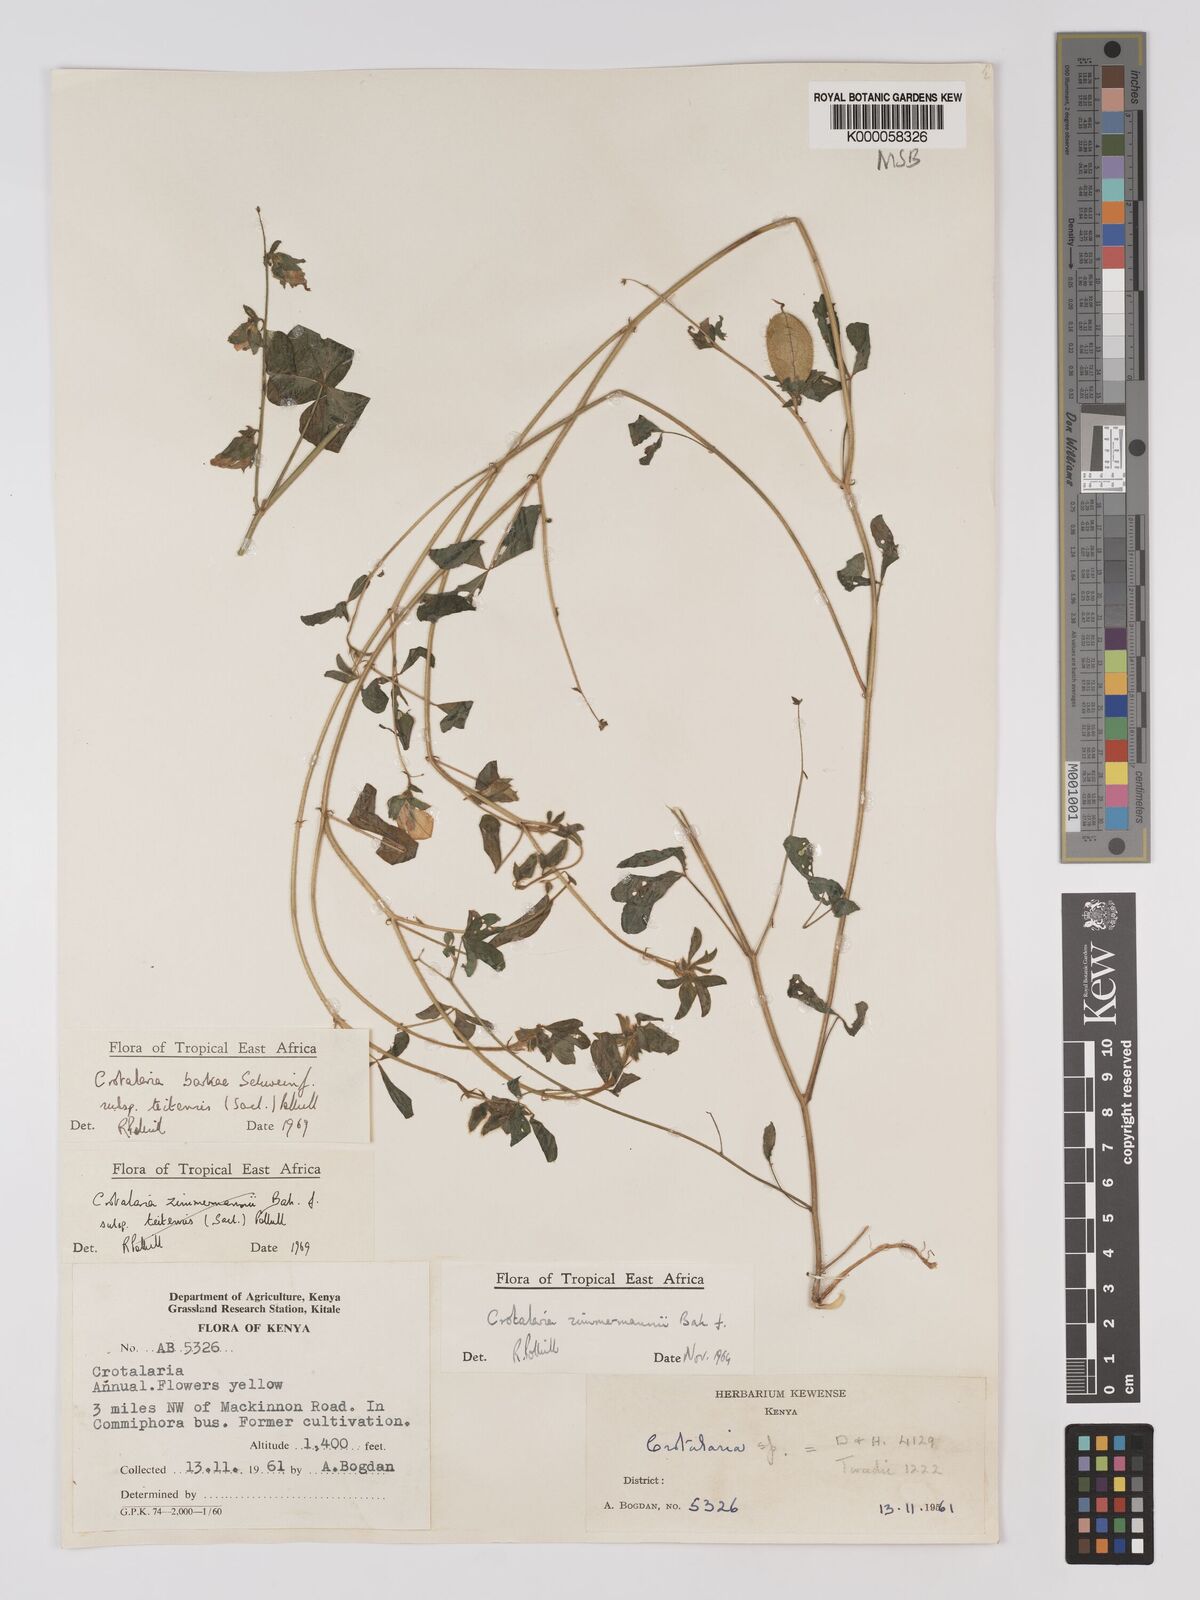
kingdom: Plantae
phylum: Tracheophyta
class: Magnoliopsida
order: Fabales
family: Fabaceae
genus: Crotalaria
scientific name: Crotalaria barkae
